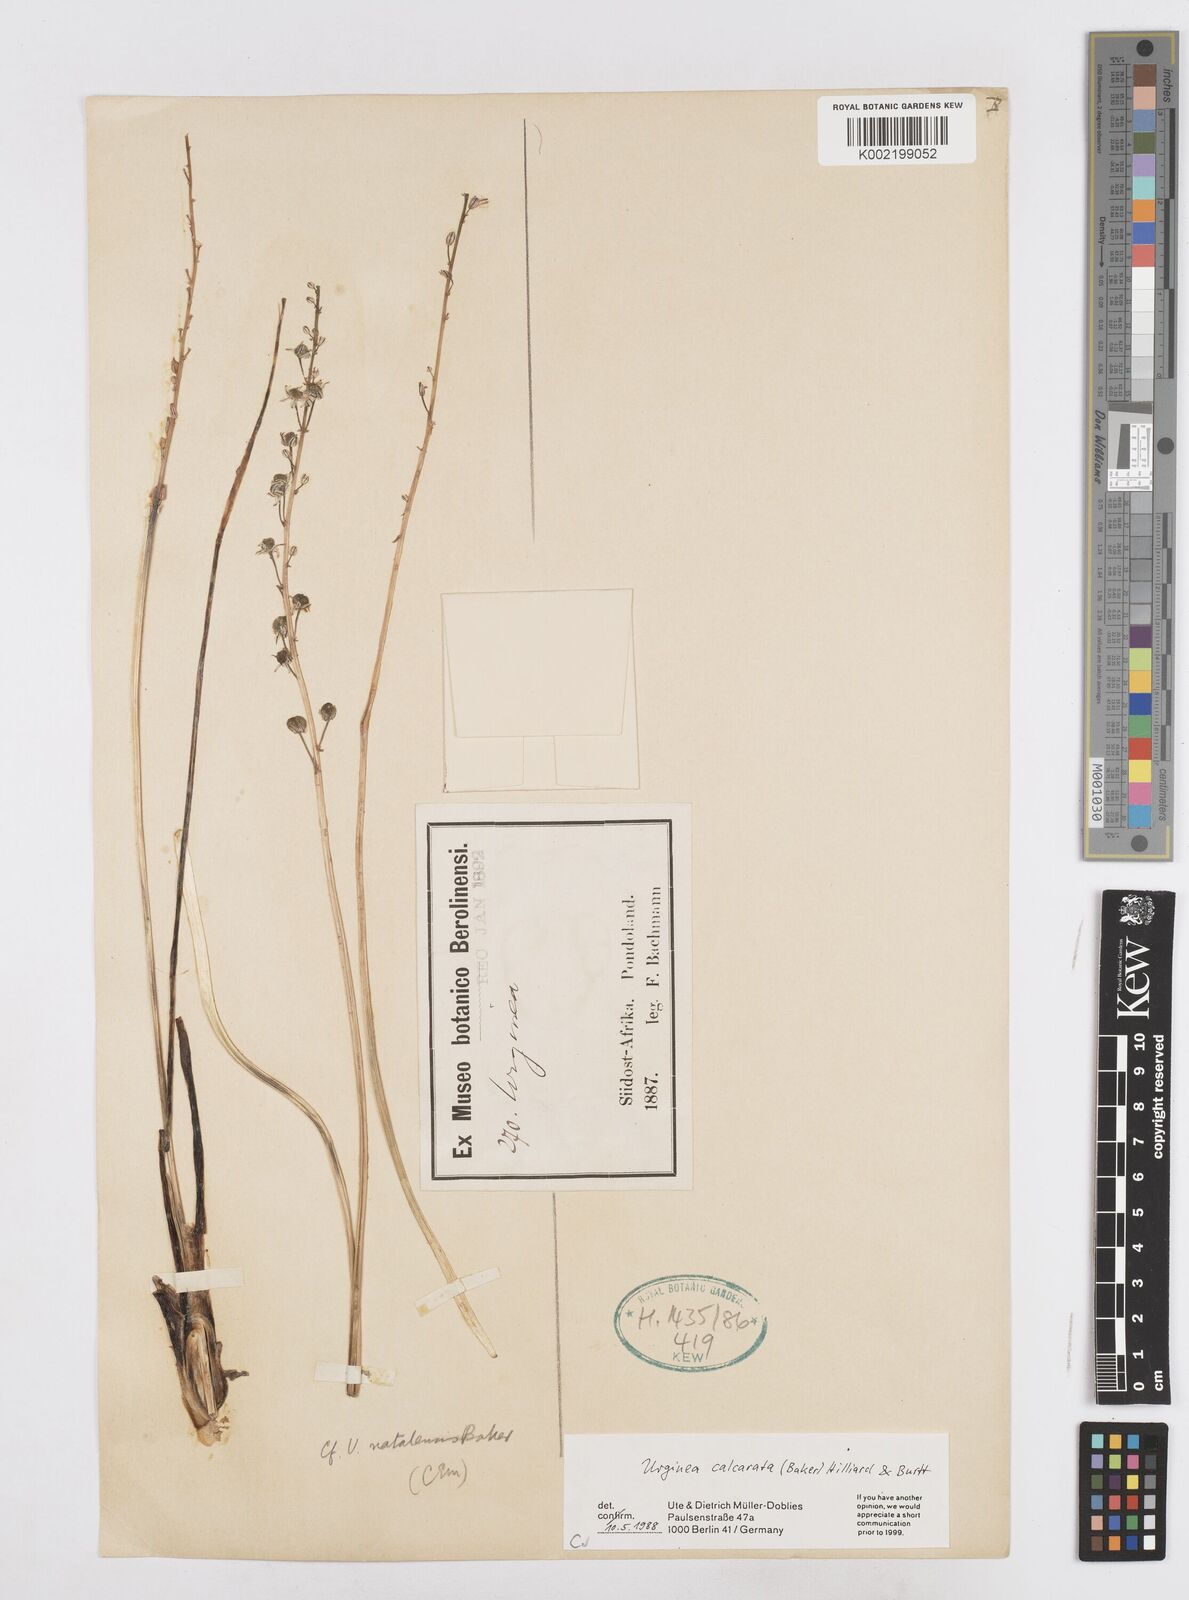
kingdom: Plantae
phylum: Tracheophyta
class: Liliopsida
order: Asparagales
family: Asparagaceae
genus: Drimia
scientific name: Drimia calcarata
